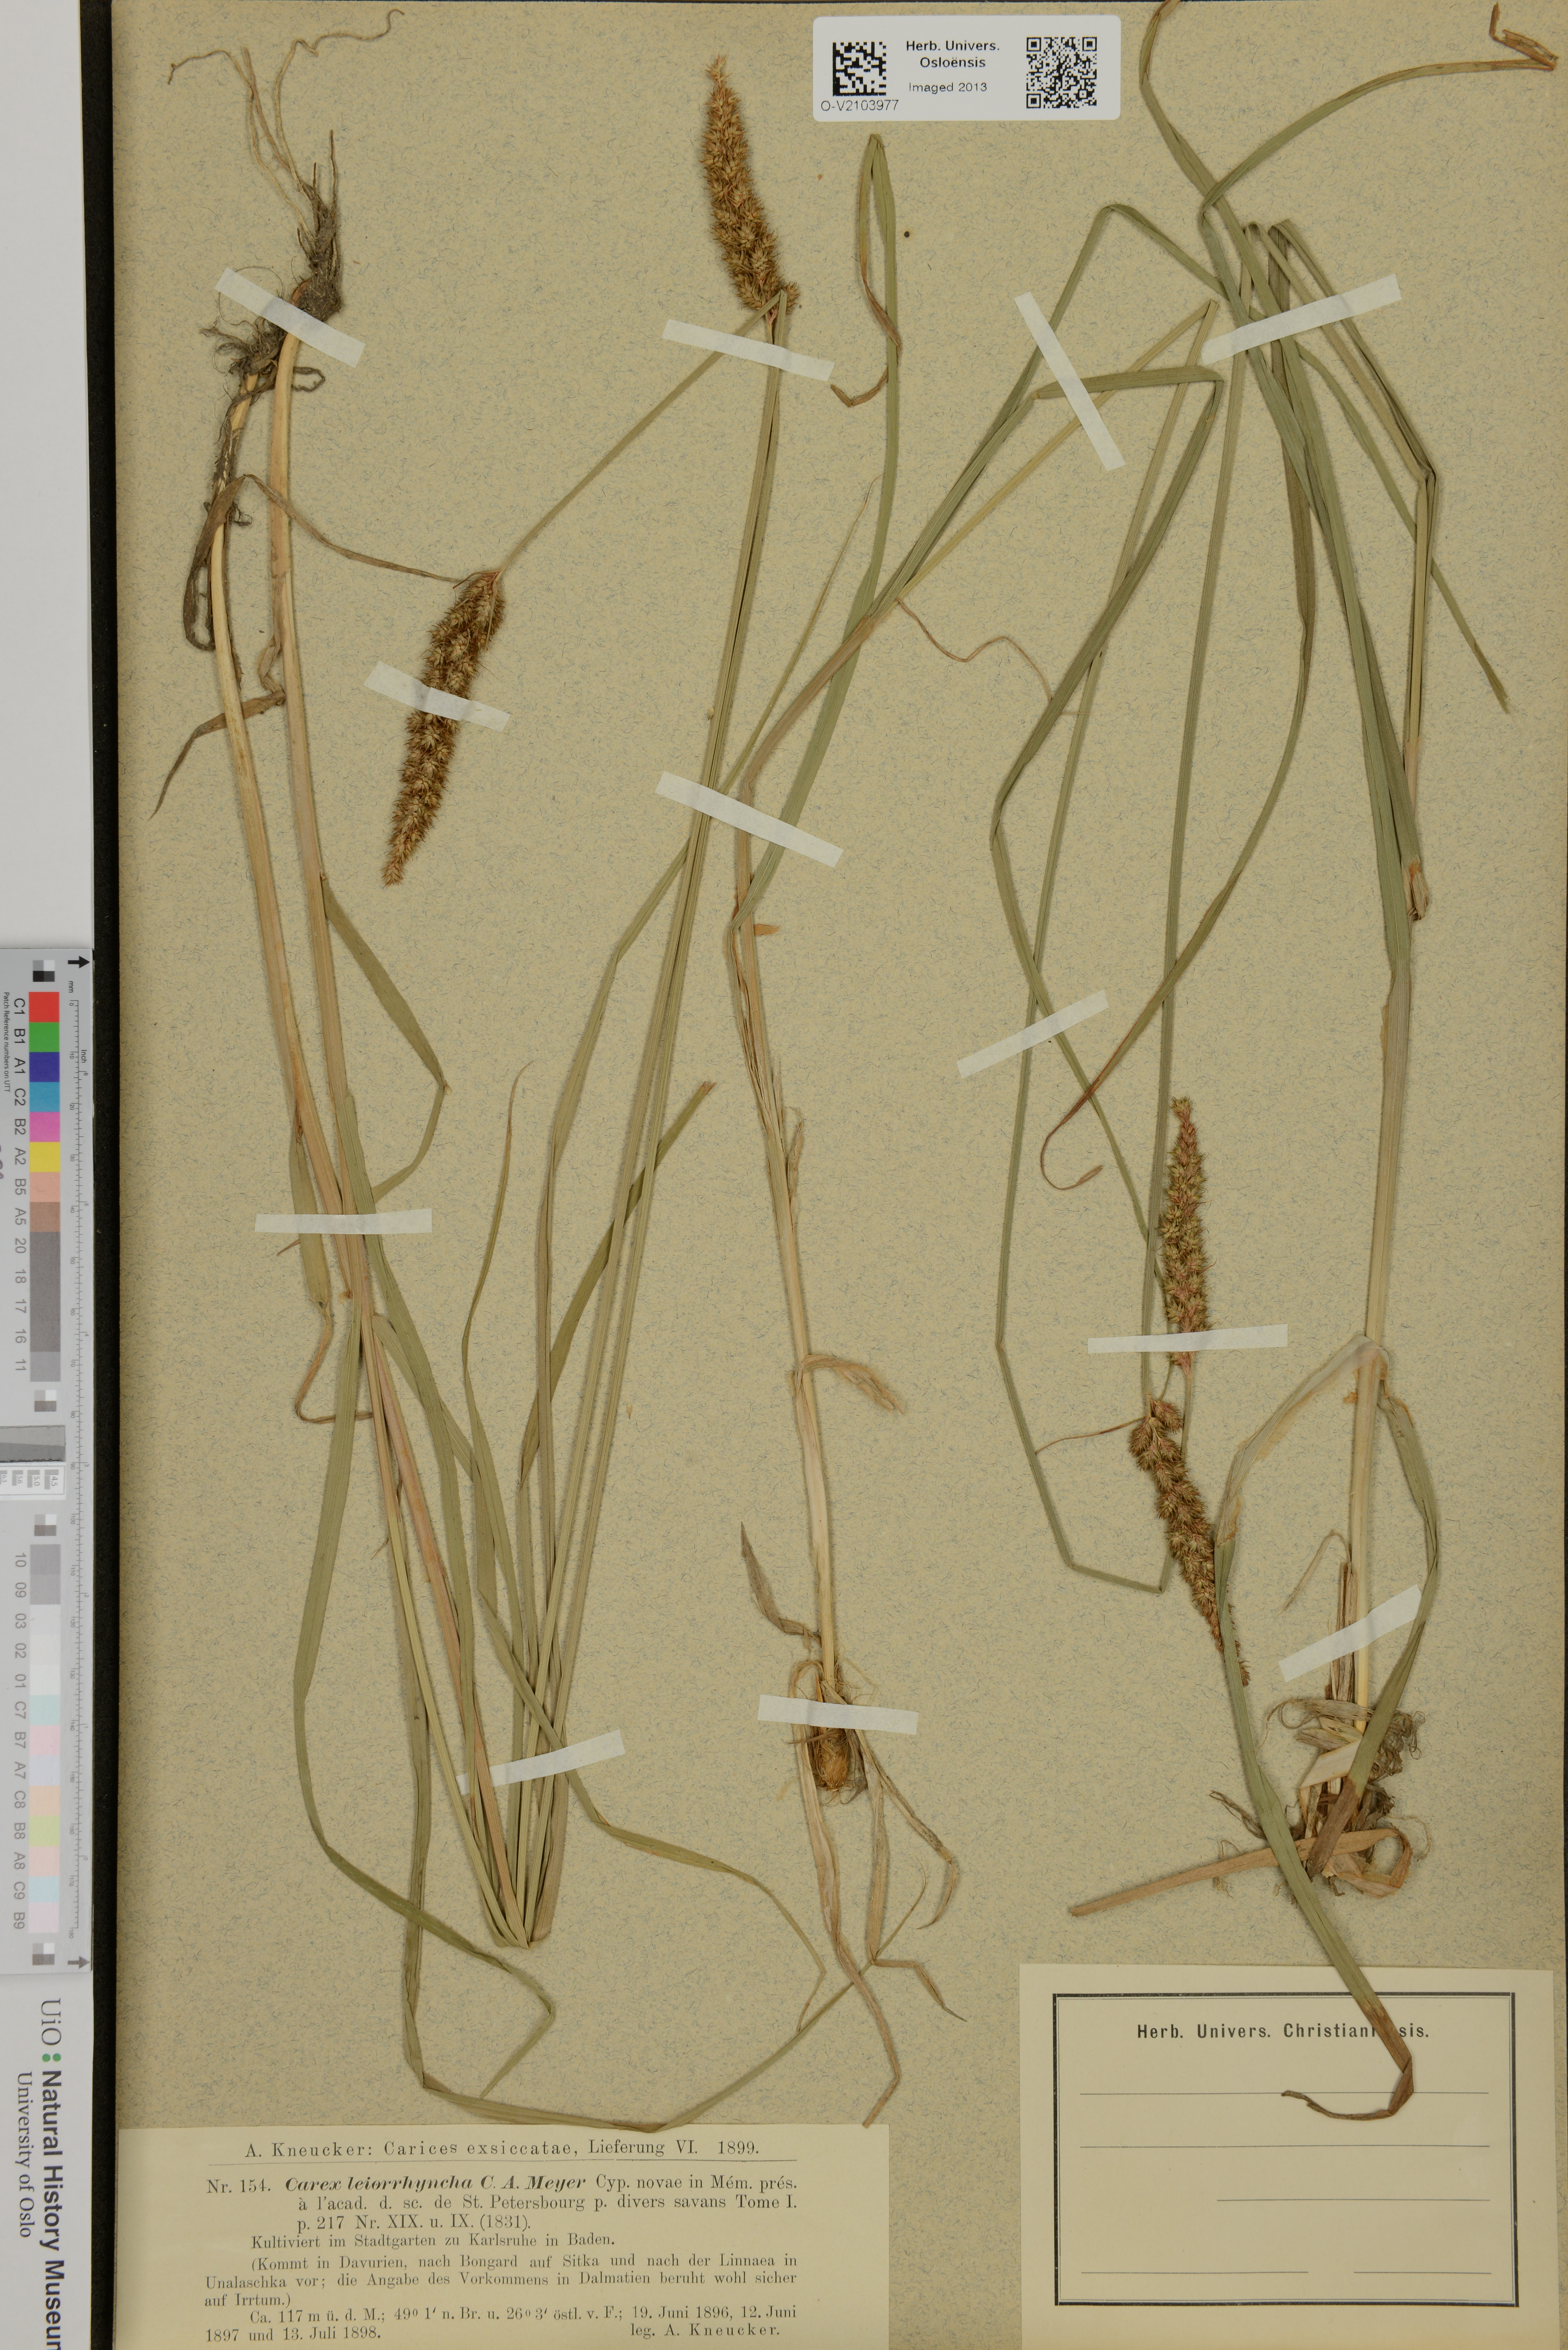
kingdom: Plantae
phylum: Tracheophyta
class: Liliopsida
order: Poales
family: Cyperaceae
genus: Carex
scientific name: Carex leiorhyncha
